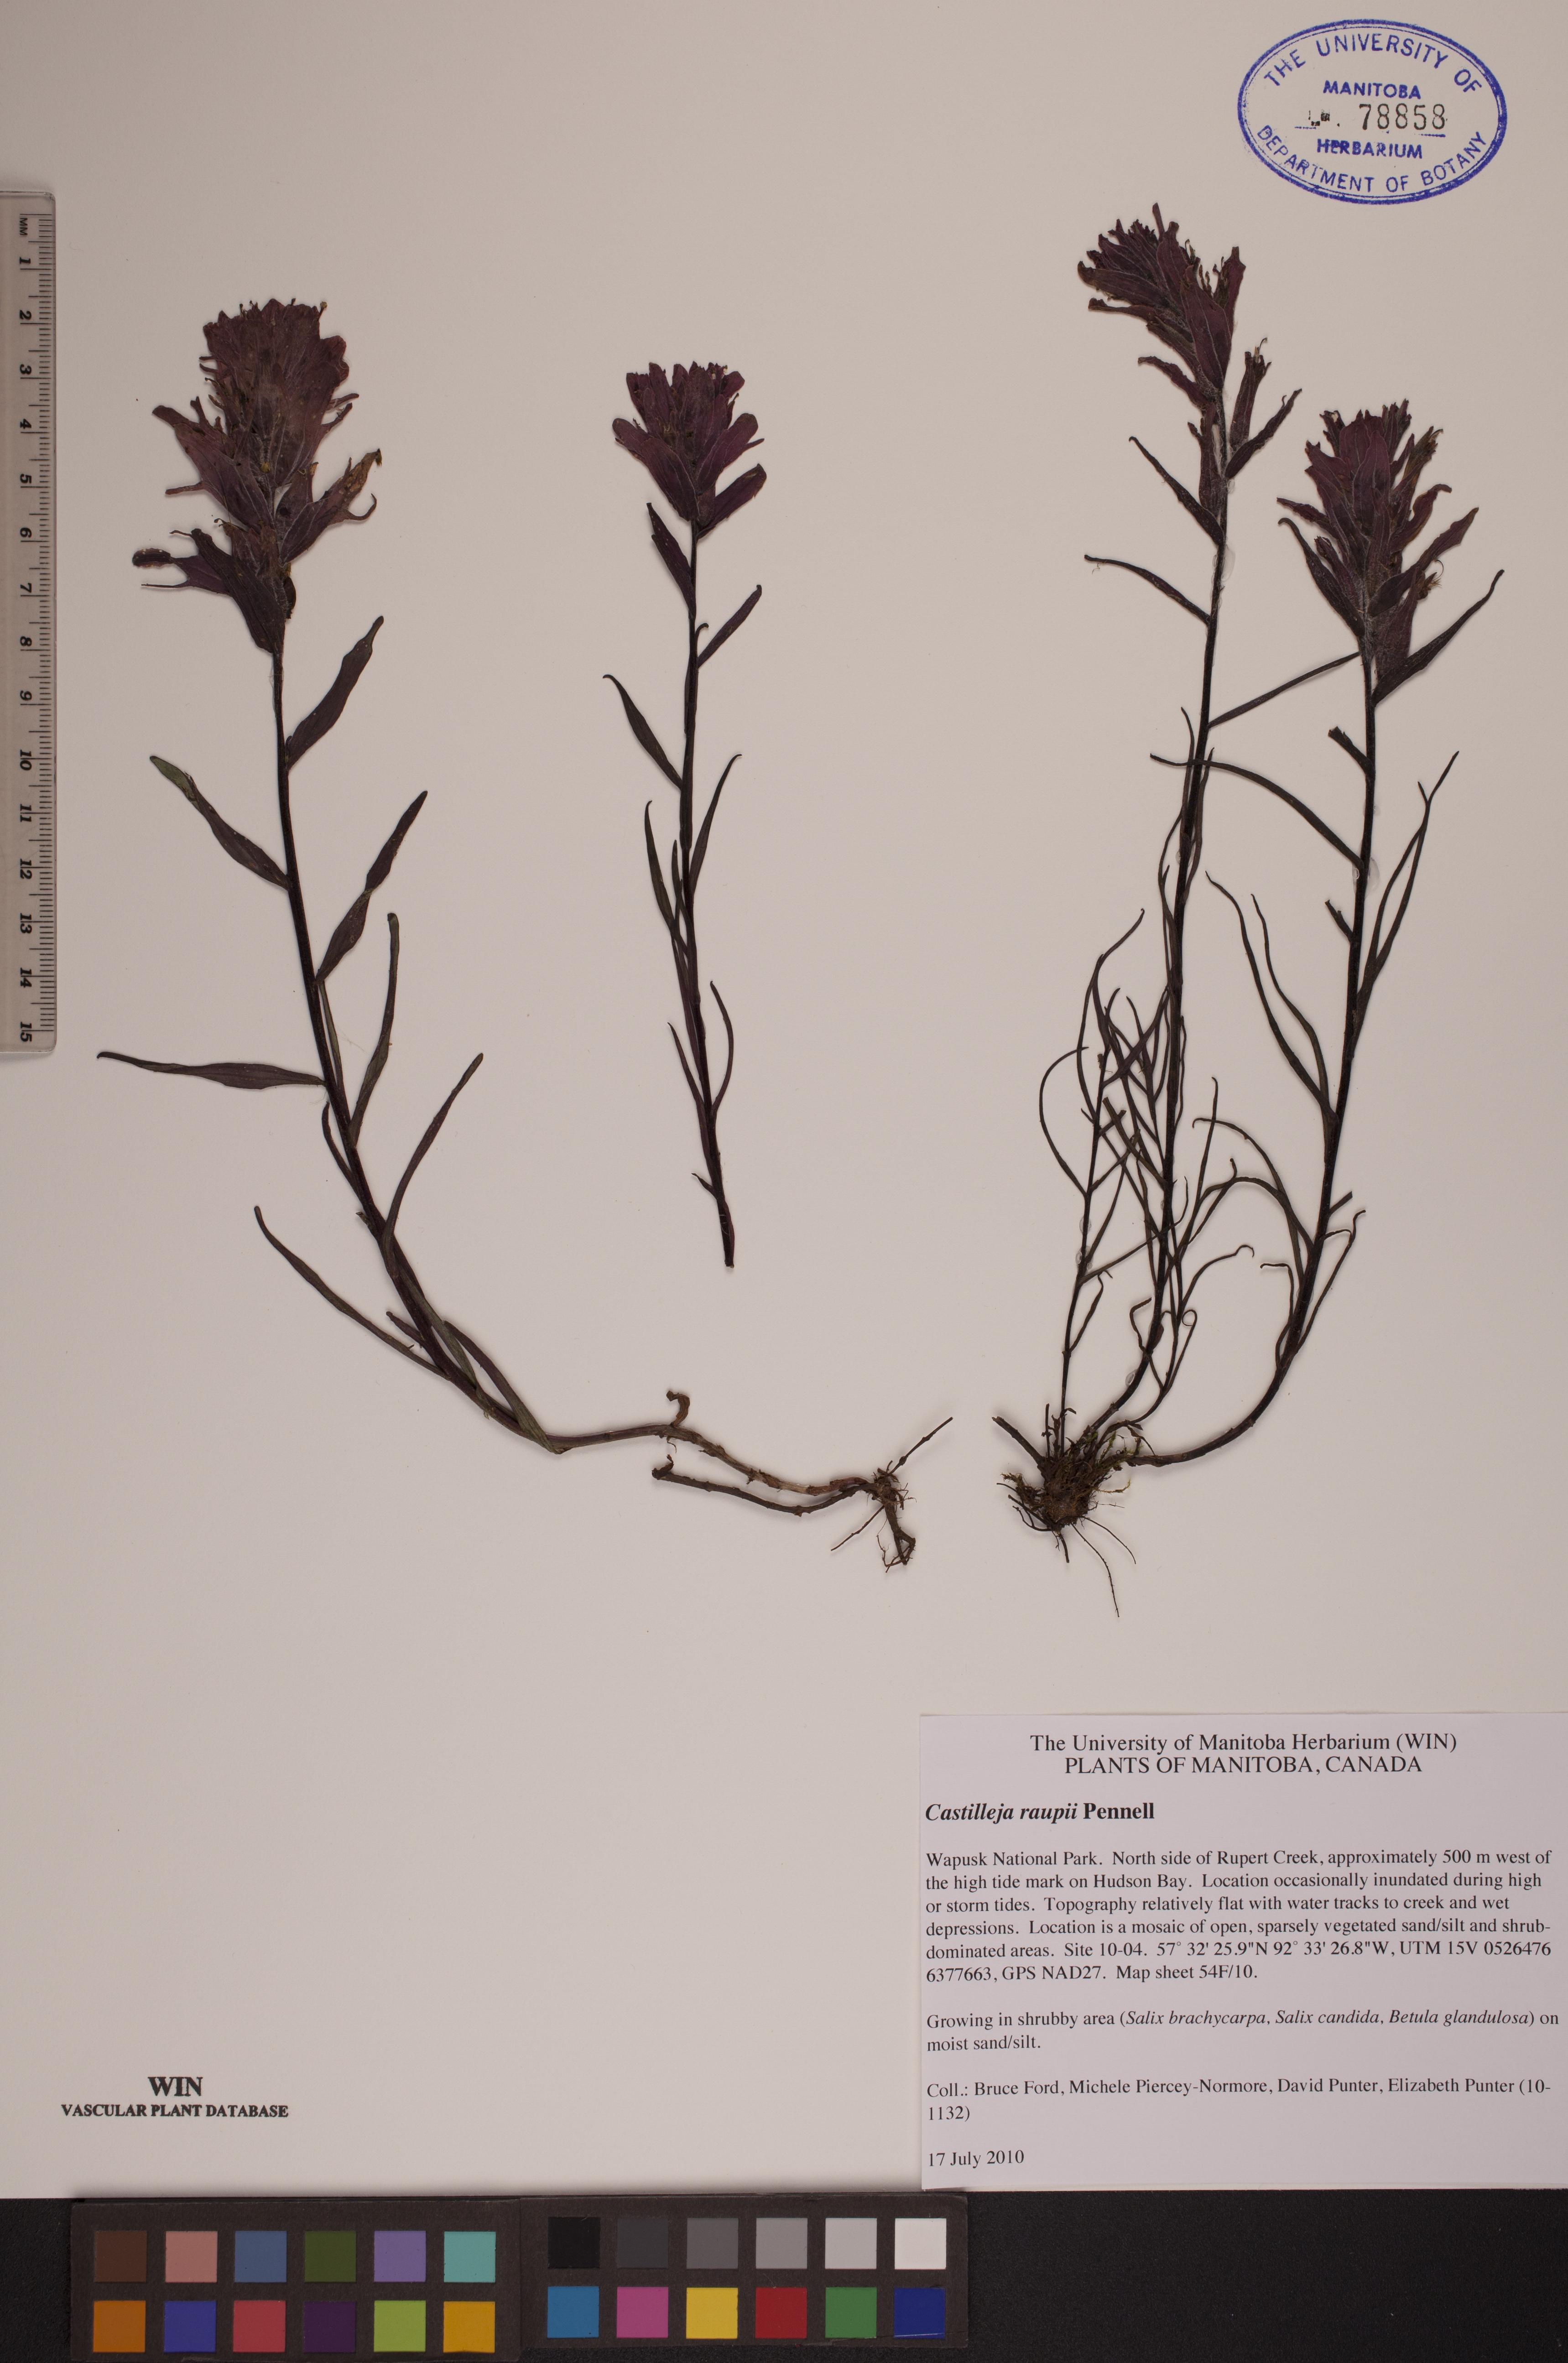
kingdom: Plantae
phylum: Tracheophyta
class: Magnoliopsida
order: Lamiales
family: Orobanchaceae
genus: Castilleja
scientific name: Castilleja raupii
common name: Raup's paintbrush
